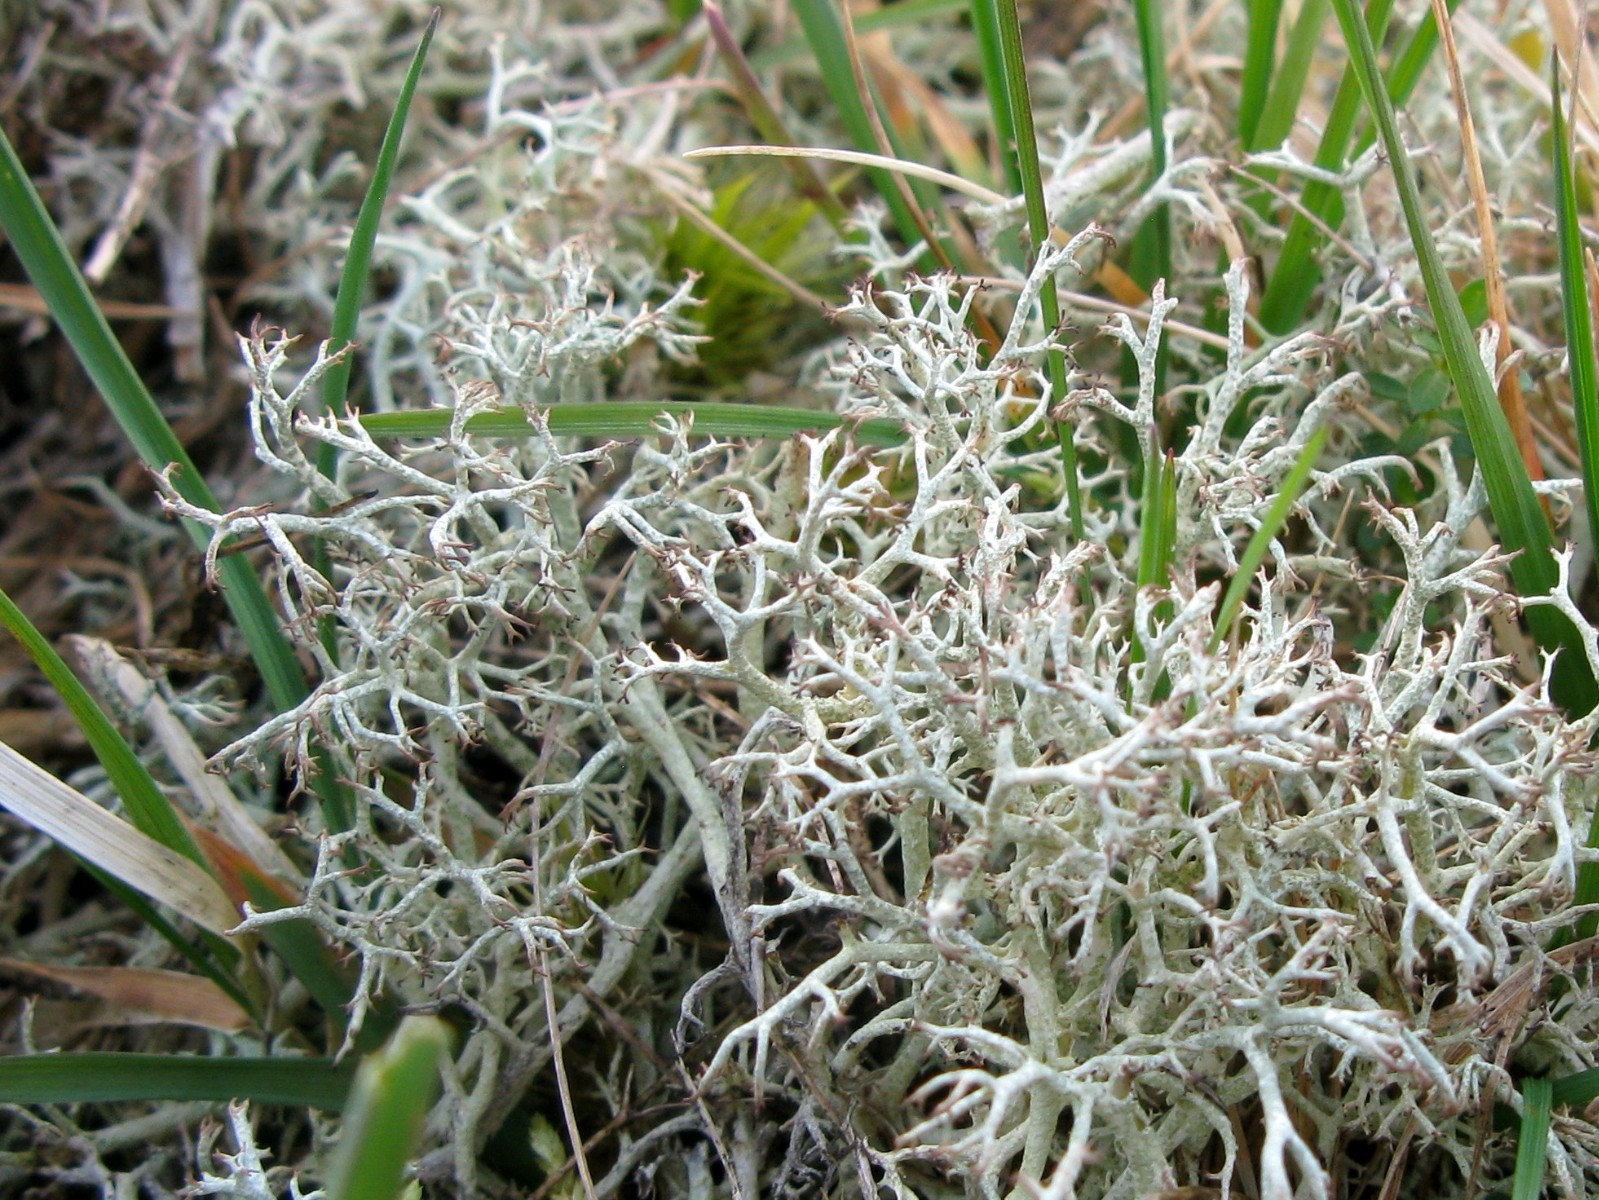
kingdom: Fungi
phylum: Ascomycota
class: Lecanoromycetes
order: Lecanorales
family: Cladoniaceae
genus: Cladonia
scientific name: Cladonia ciliata
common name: spinkel rensdyrlav
